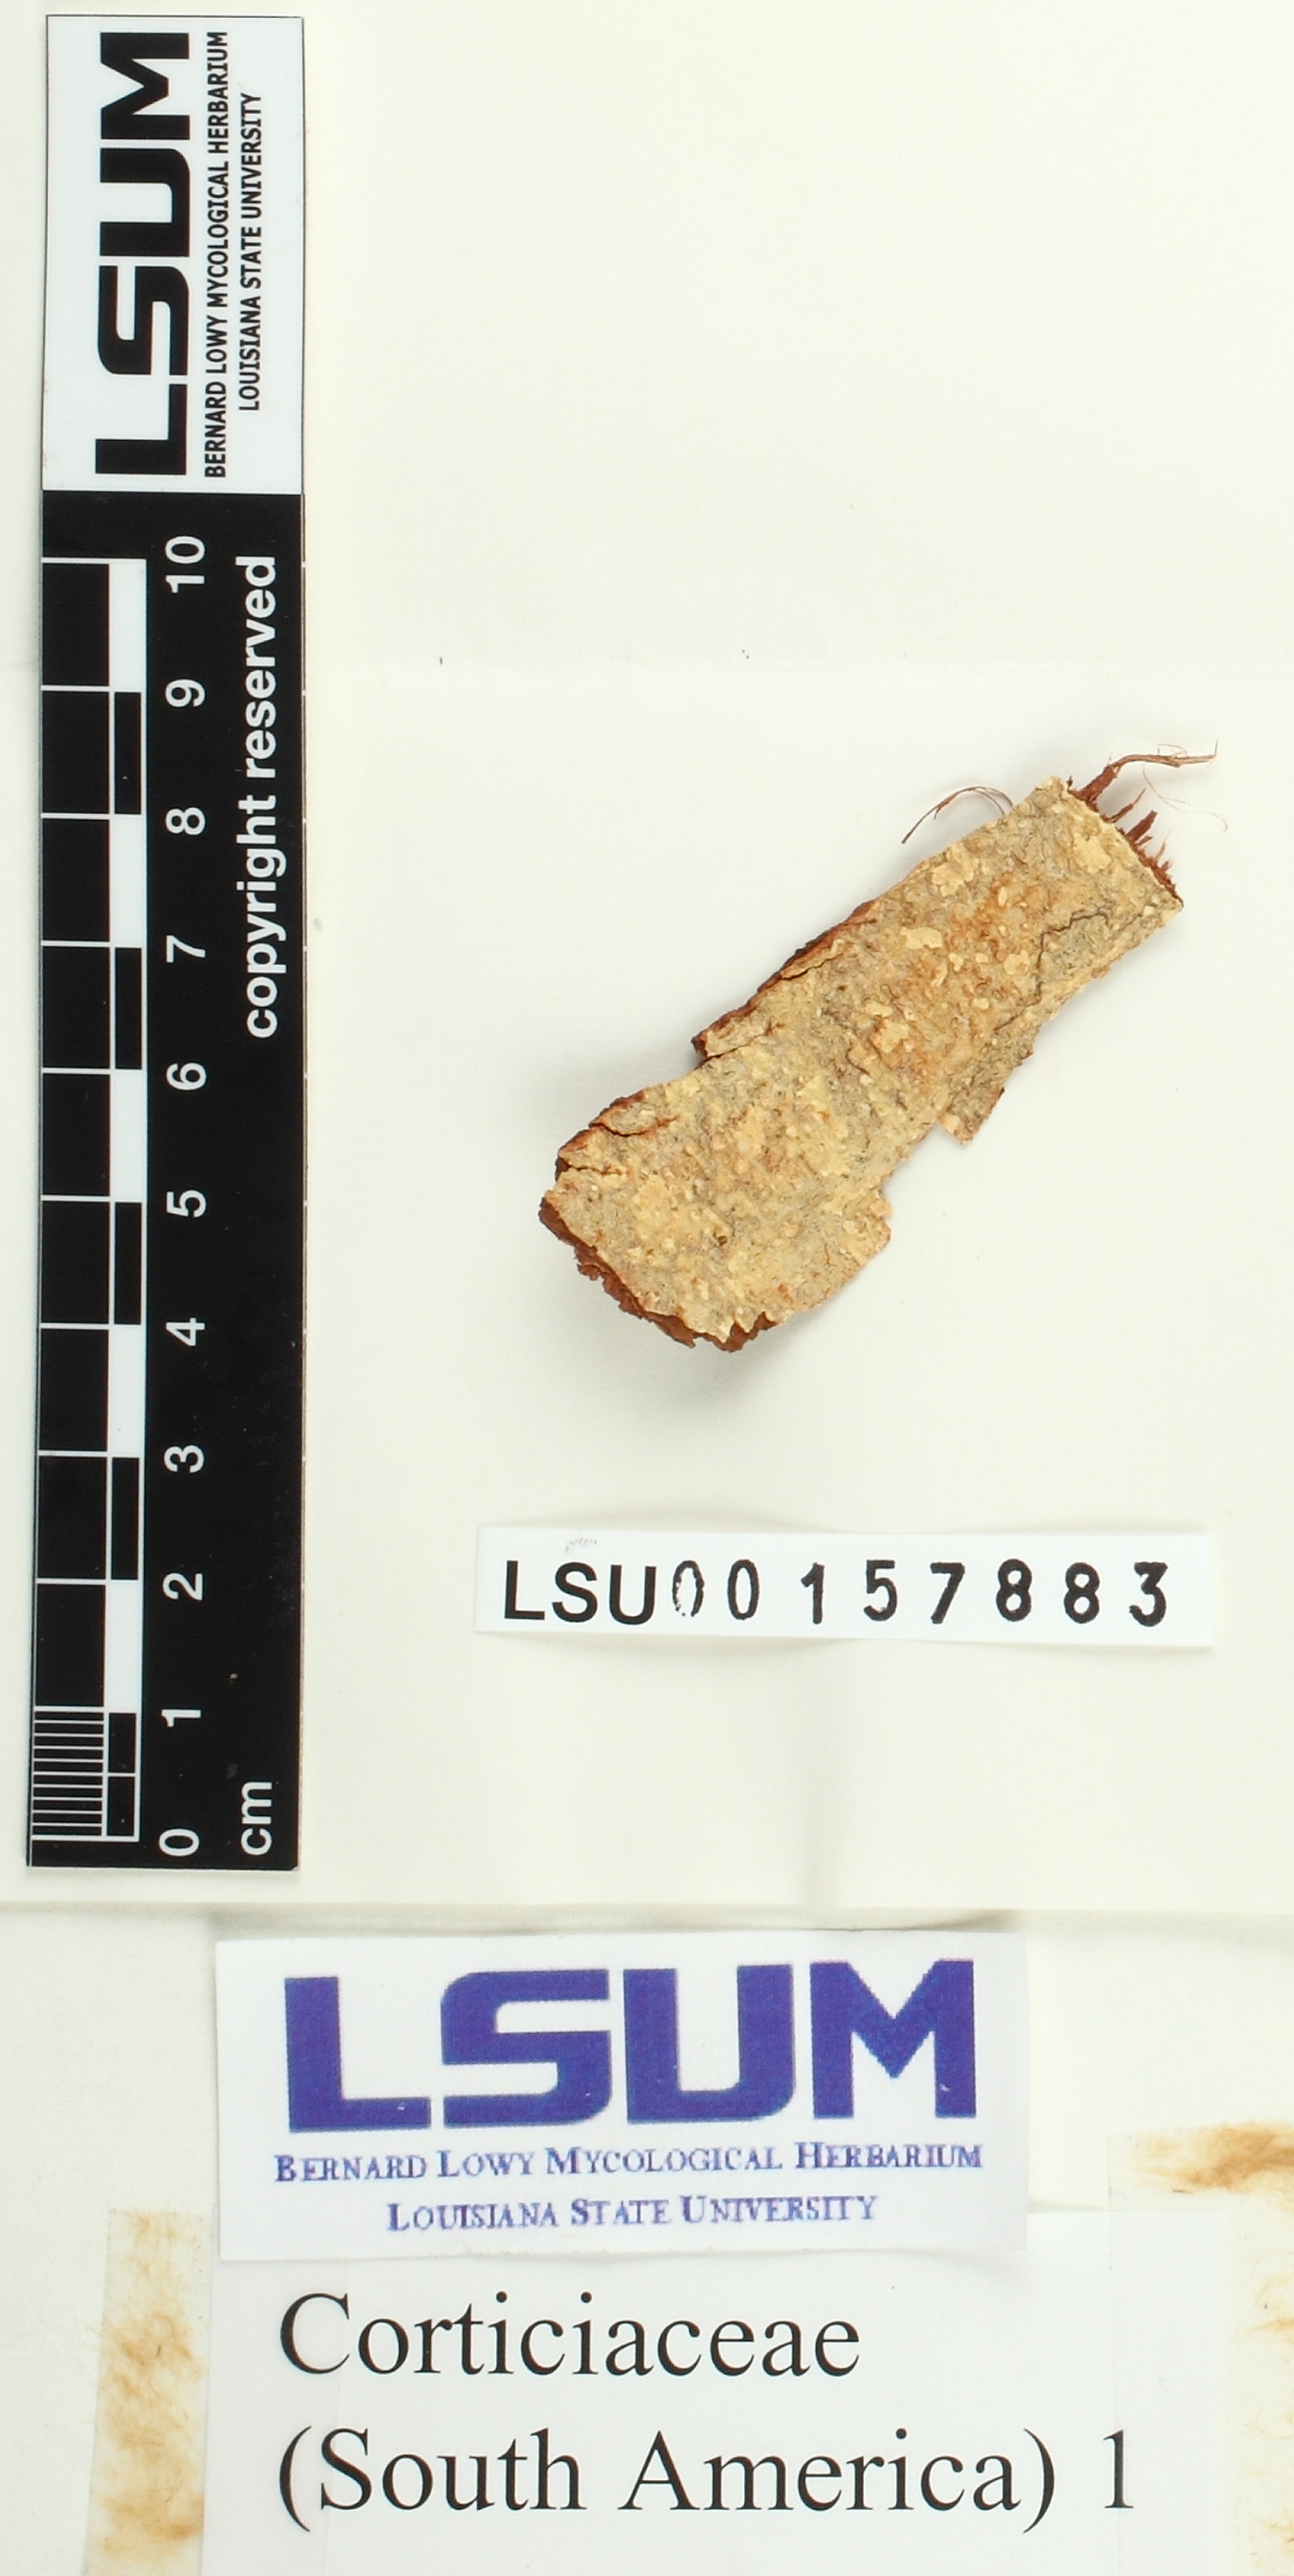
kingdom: Fungi
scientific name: Fungi
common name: Fungi
